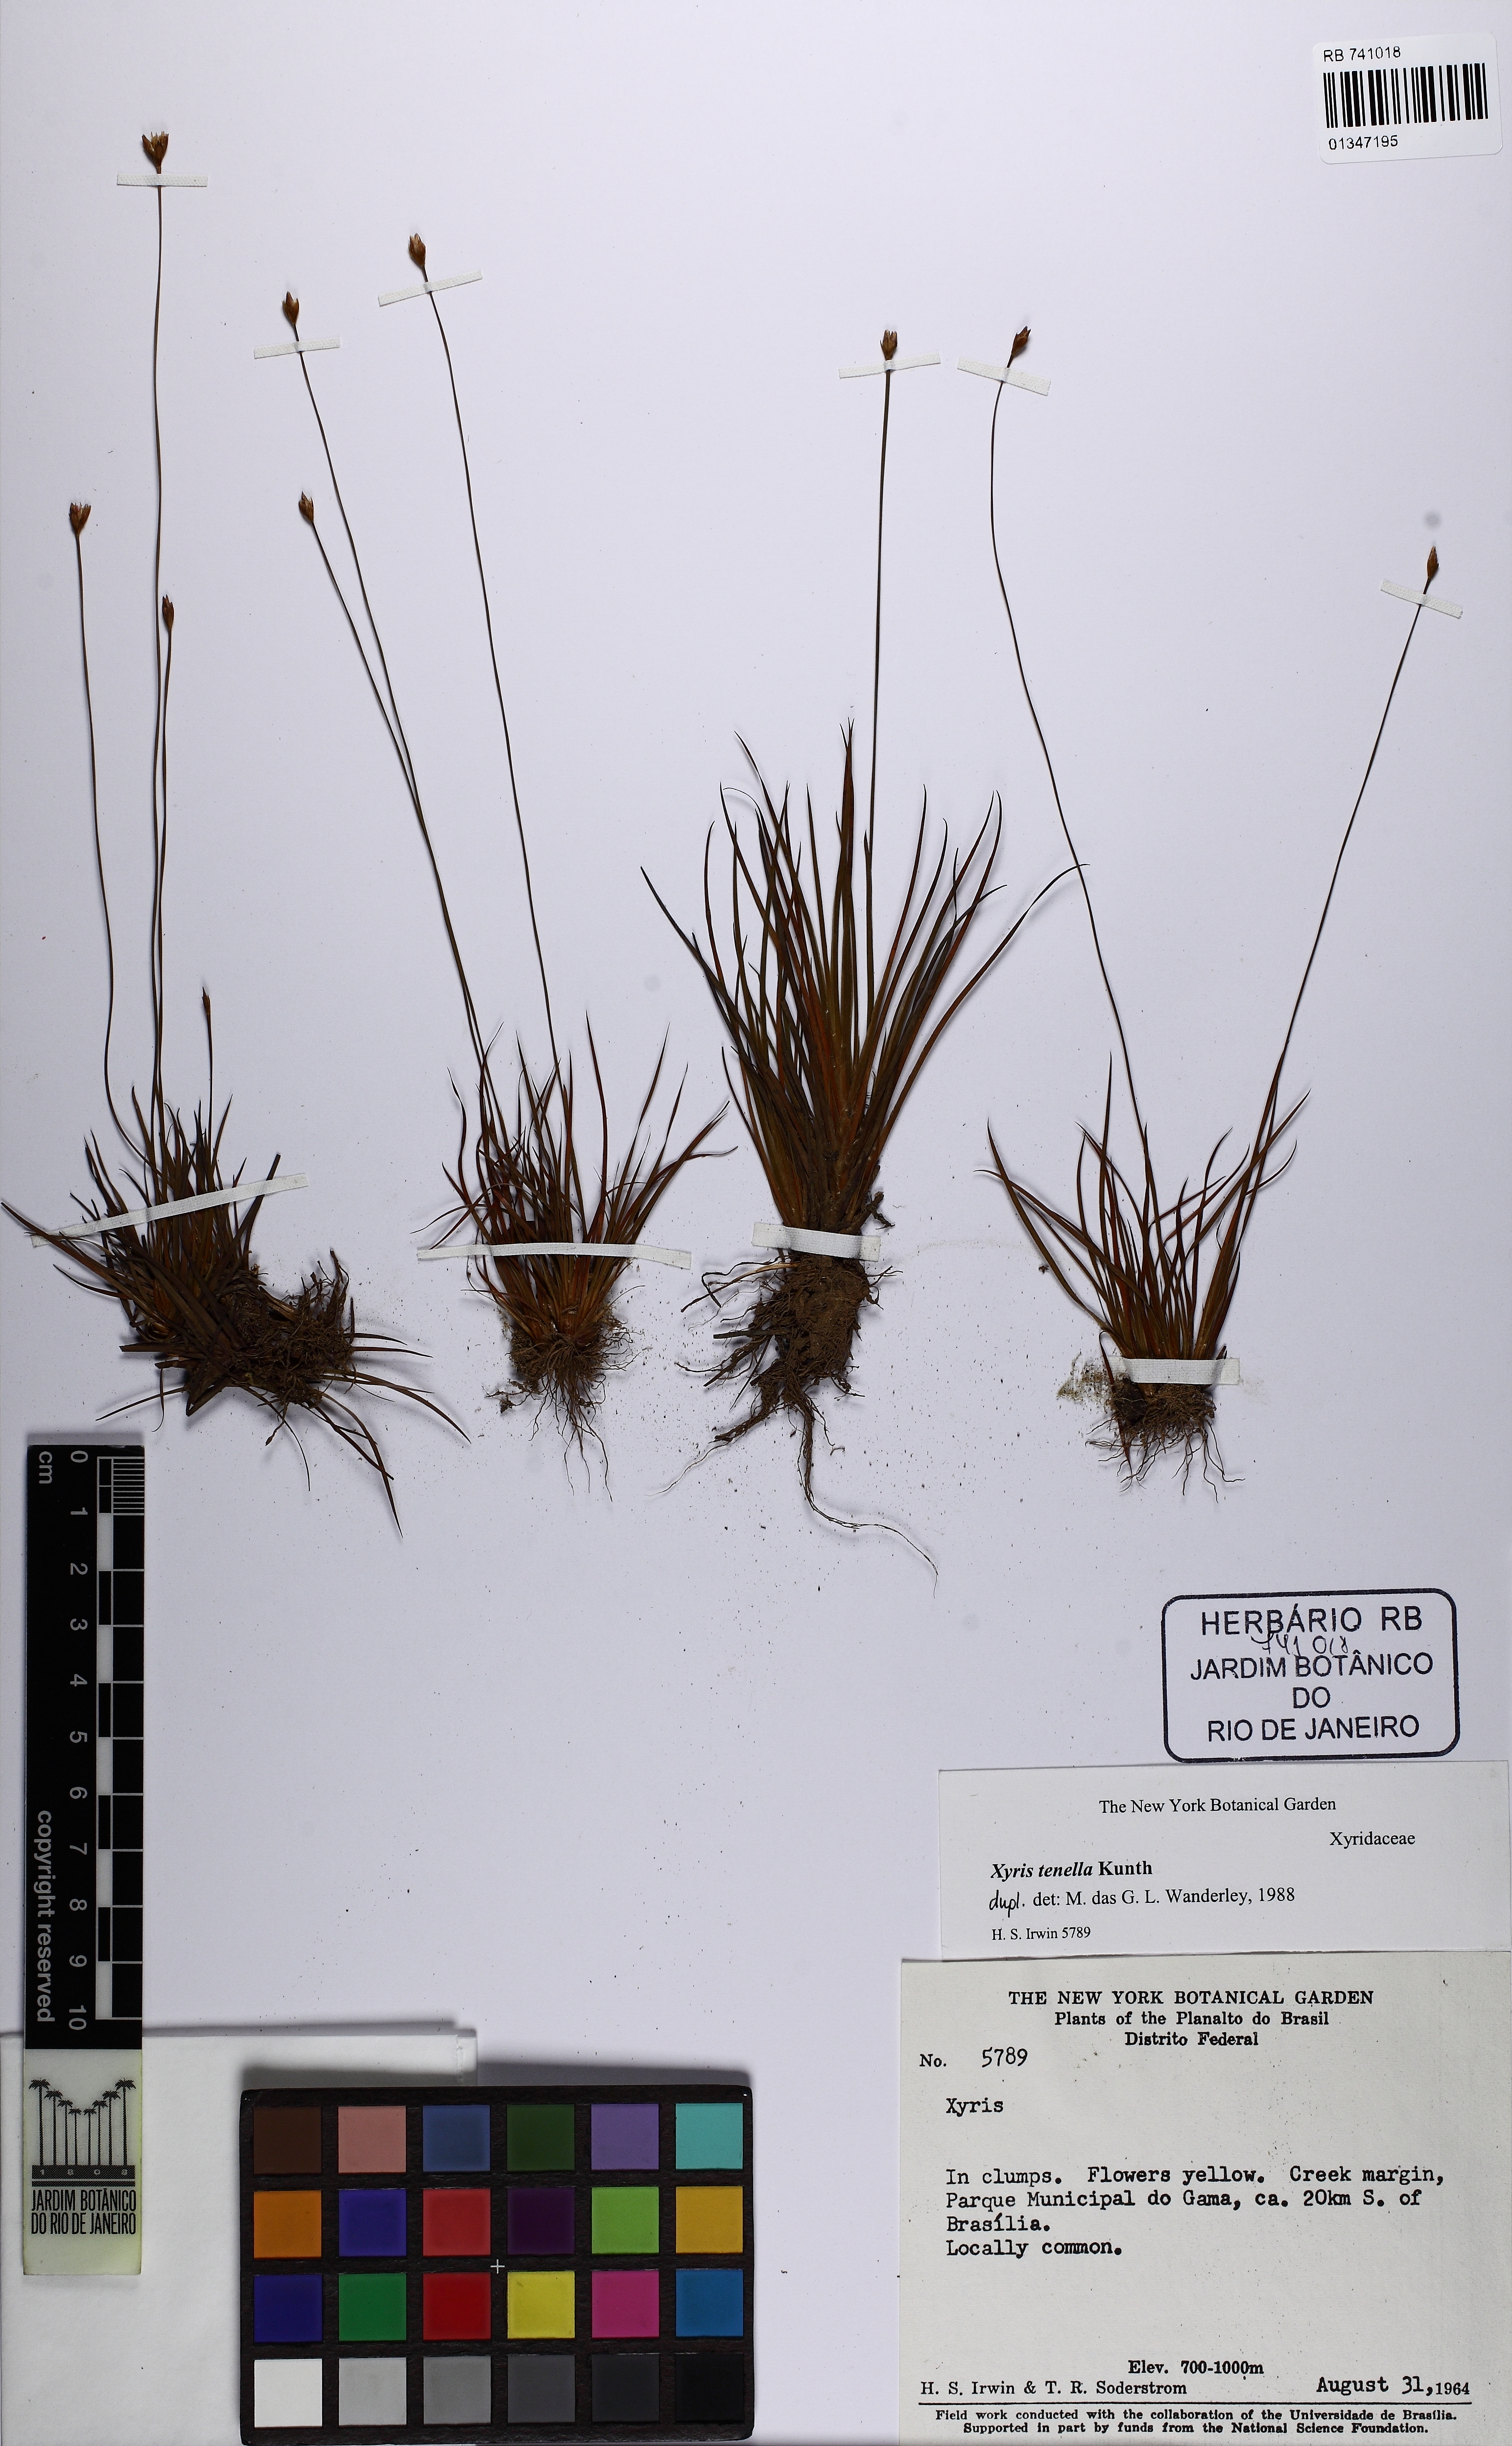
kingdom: Plantae
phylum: Tracheophyta
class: Liliopsida
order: Poales
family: Xyridaceae
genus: Xyris
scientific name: Xyris tenella
